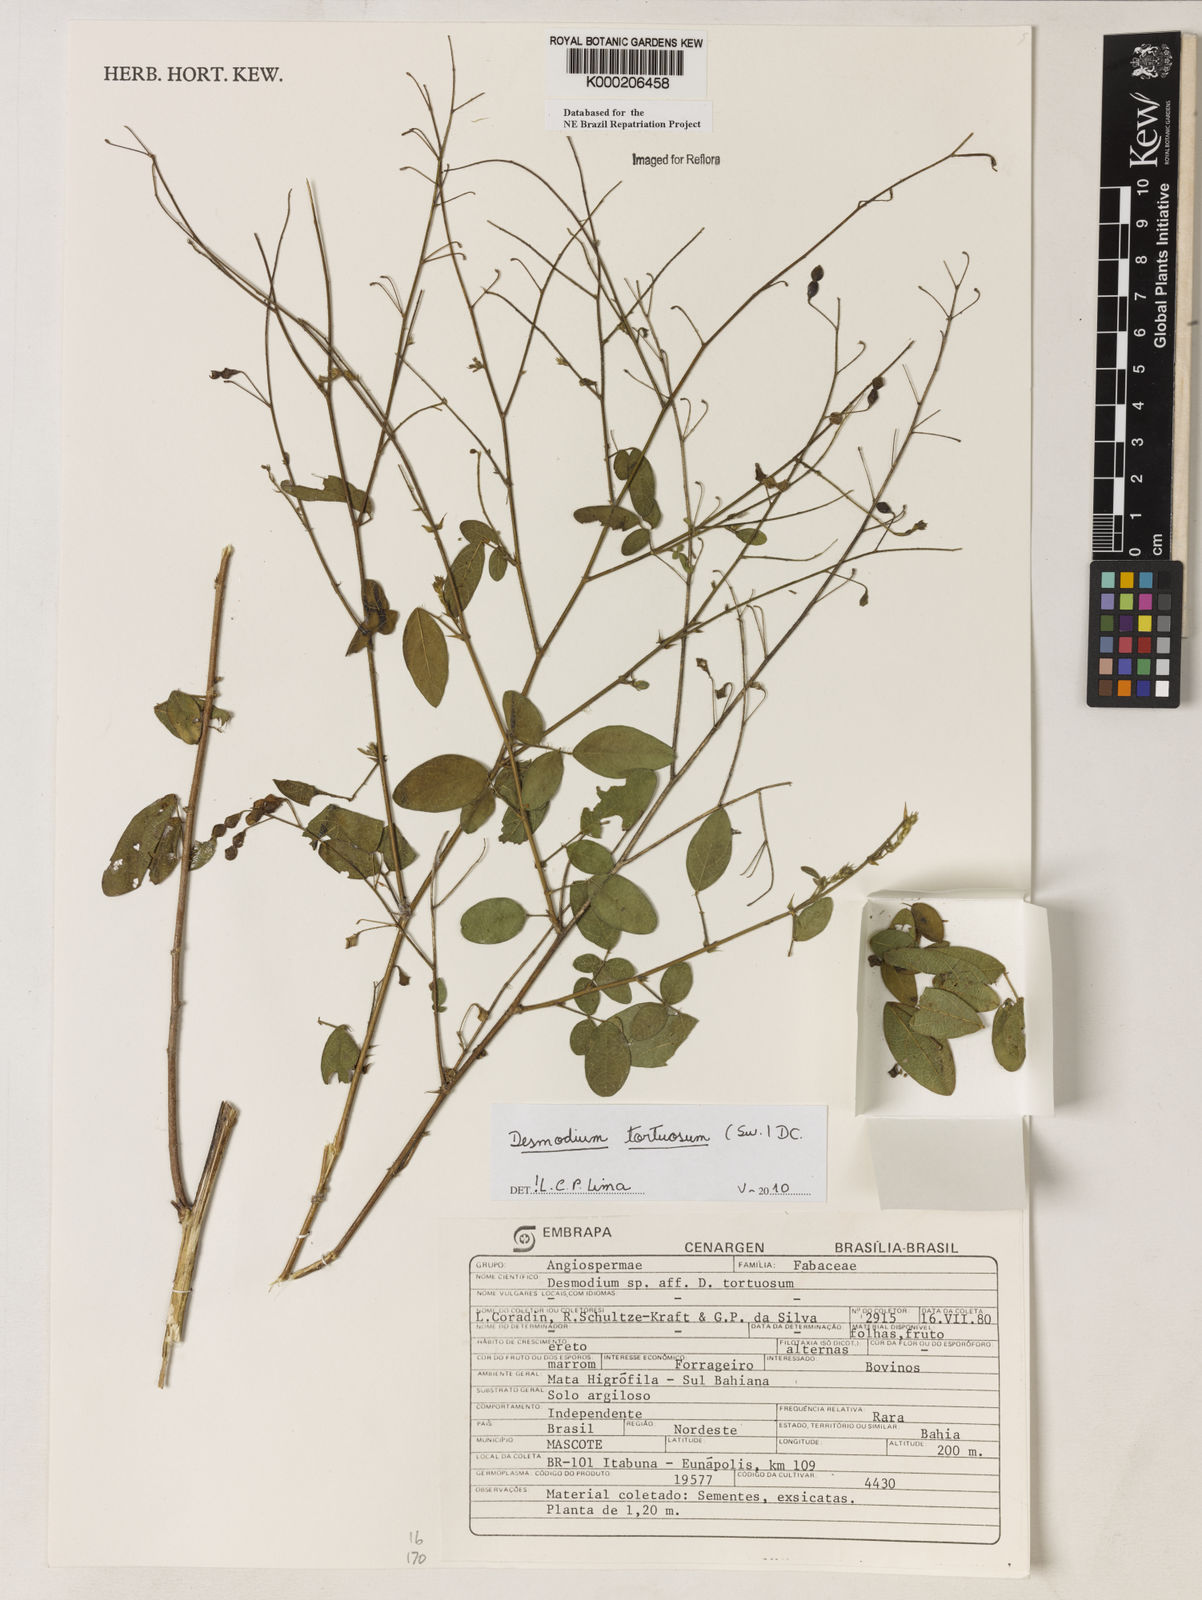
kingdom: Plantae
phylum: Tracheophyta
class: Magnoliopsida
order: Fabales
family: Fabaceae
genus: Desmodium
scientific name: Desmodium tortuosum
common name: Dixie ticktrefoil
